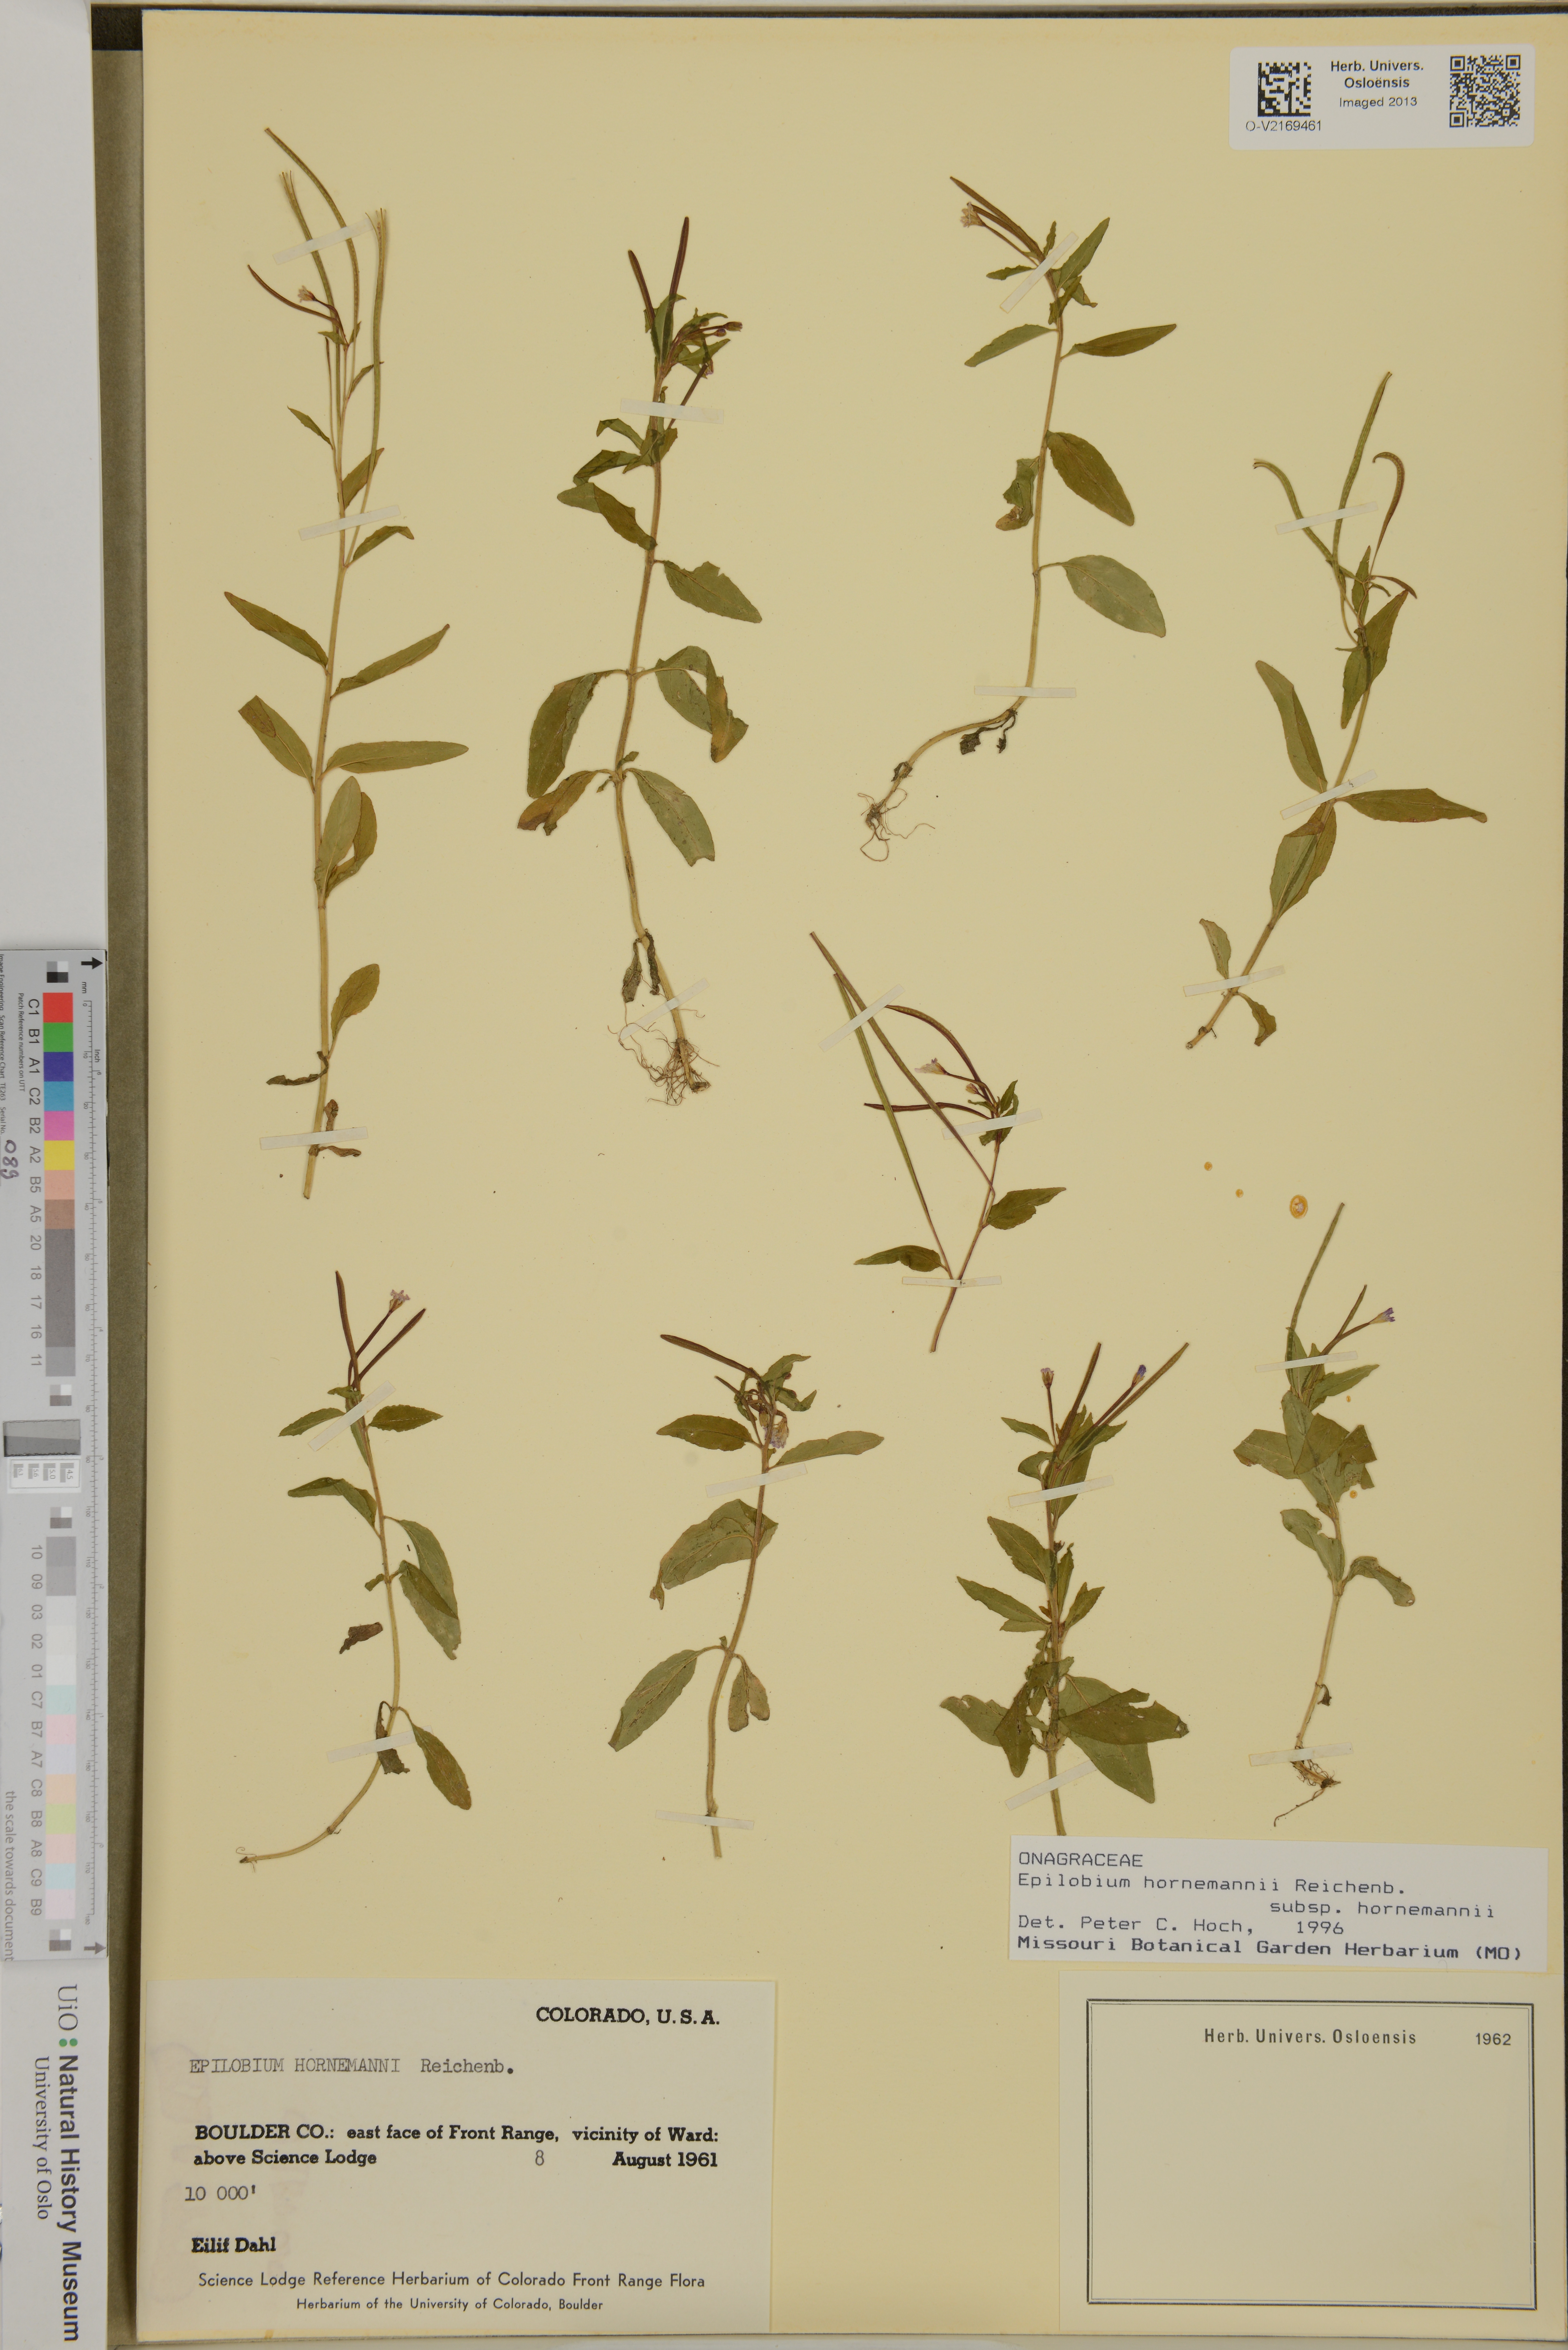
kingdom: Plantae
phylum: Tracheophyta
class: Magnoliopsida
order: Myrtales
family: Onagraceae
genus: Epilobium
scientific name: Epilobium hornemannii
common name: Hornemann's willowherb
